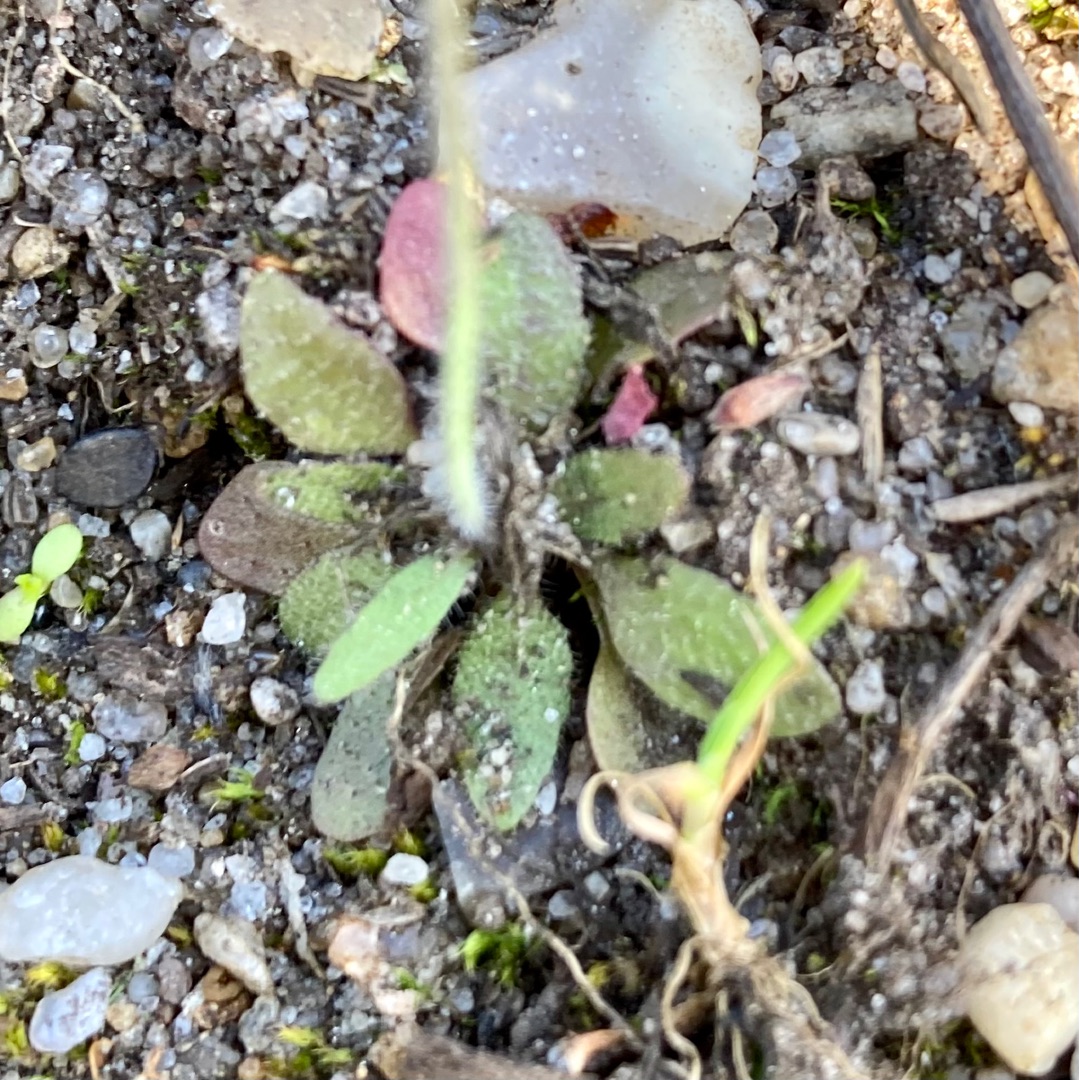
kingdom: Plantae
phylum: Tracheophyta
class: Magnoliopsida
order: Brassicales
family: Brassicaceae
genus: Arabidopsis
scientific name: Arabidopsis thaliana
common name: Almindelig gåsemad
